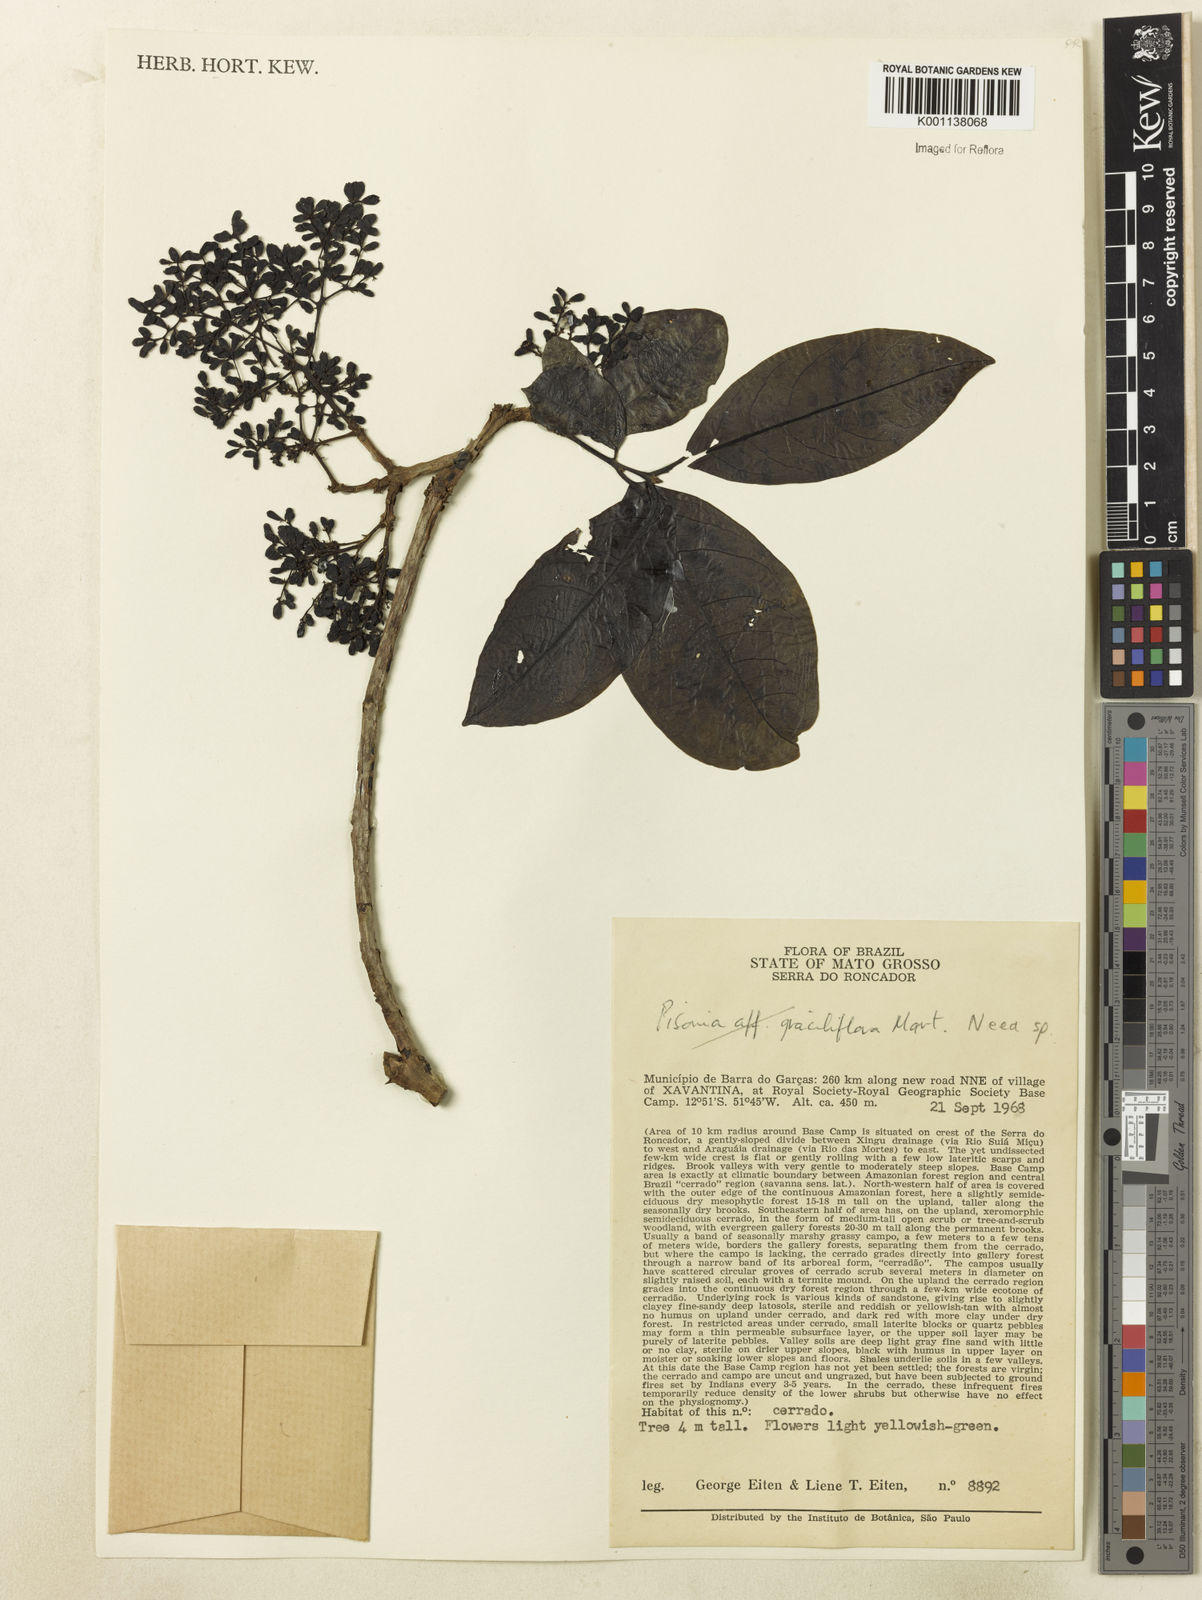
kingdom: Plantae
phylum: Tracheophyta
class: Magnoliopsida
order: Caryophyllales
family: Nyctaginaceae
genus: Neea
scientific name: Neea
